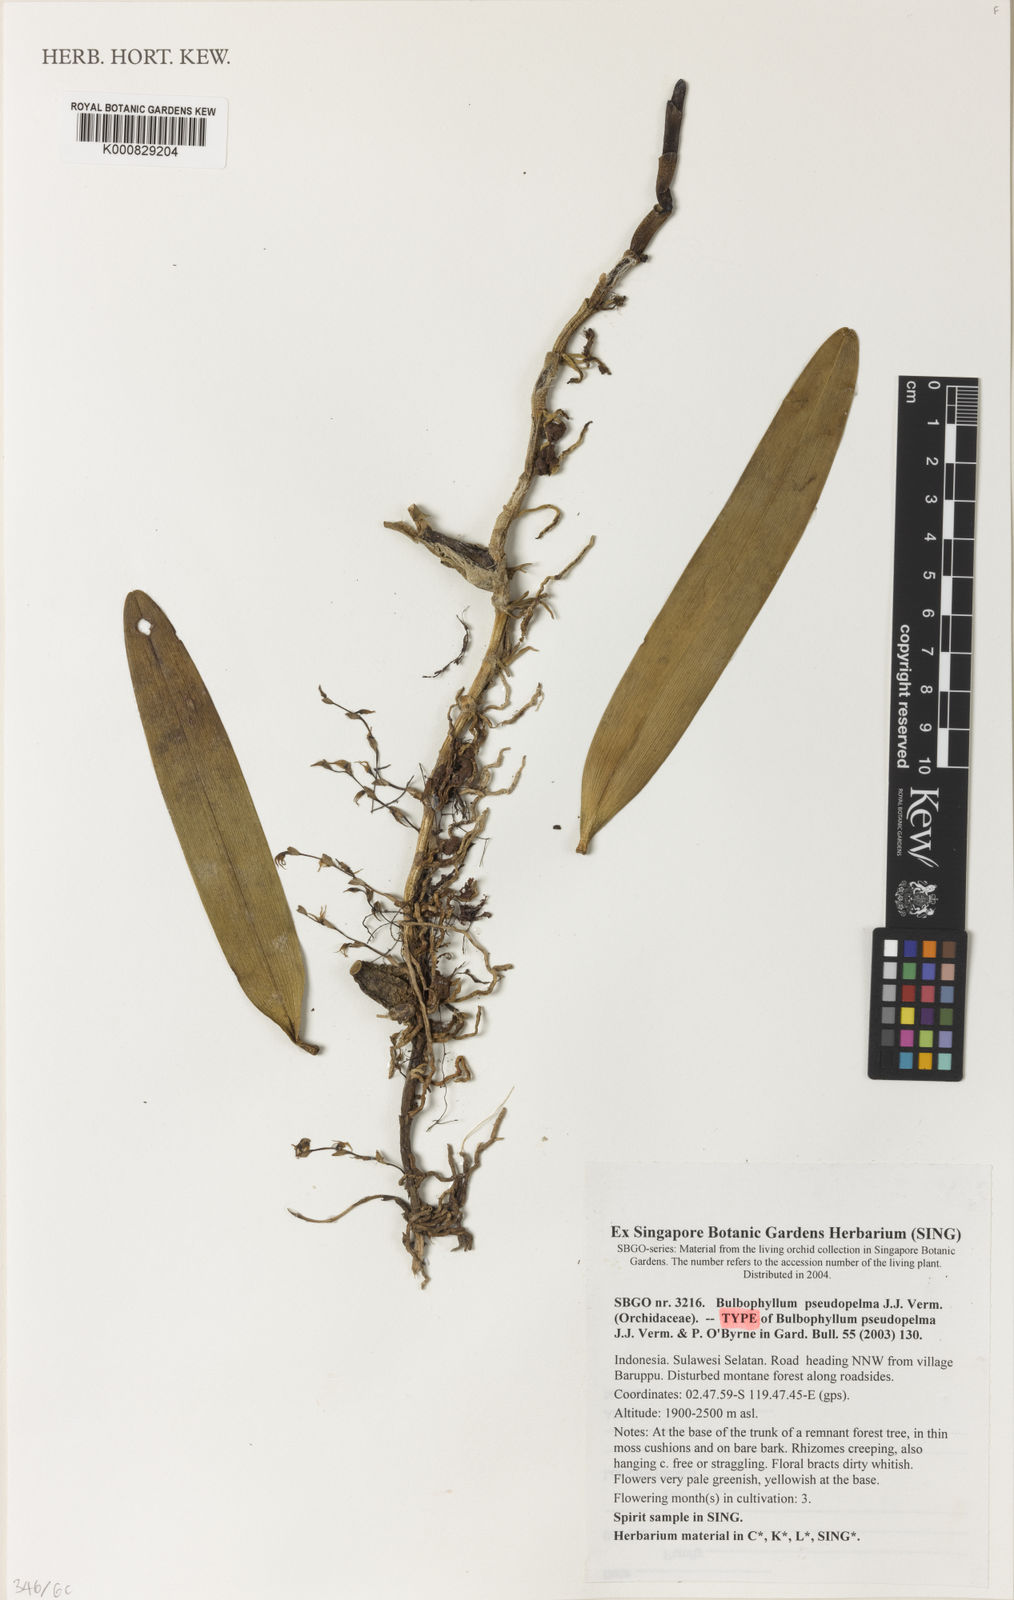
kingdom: Plantae
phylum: Tracheophyta
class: Liliopsida
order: Asparagales
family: Orchidaceae
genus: Bulbophyllum
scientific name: Bulbophyllum pseudopelma
